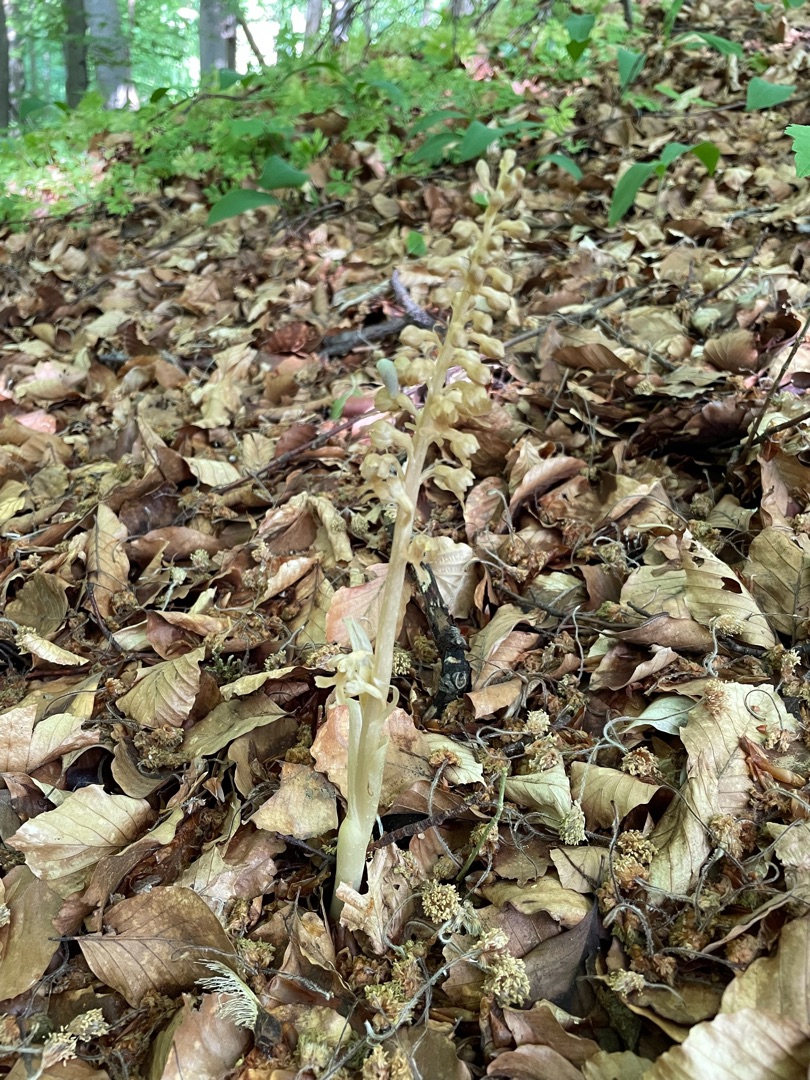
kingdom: Plantae
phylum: Tracheophyta
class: Liliopsida
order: Asparagales
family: Orchidaceae
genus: Neottia
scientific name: Neottia nidus-avis
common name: Rederod
